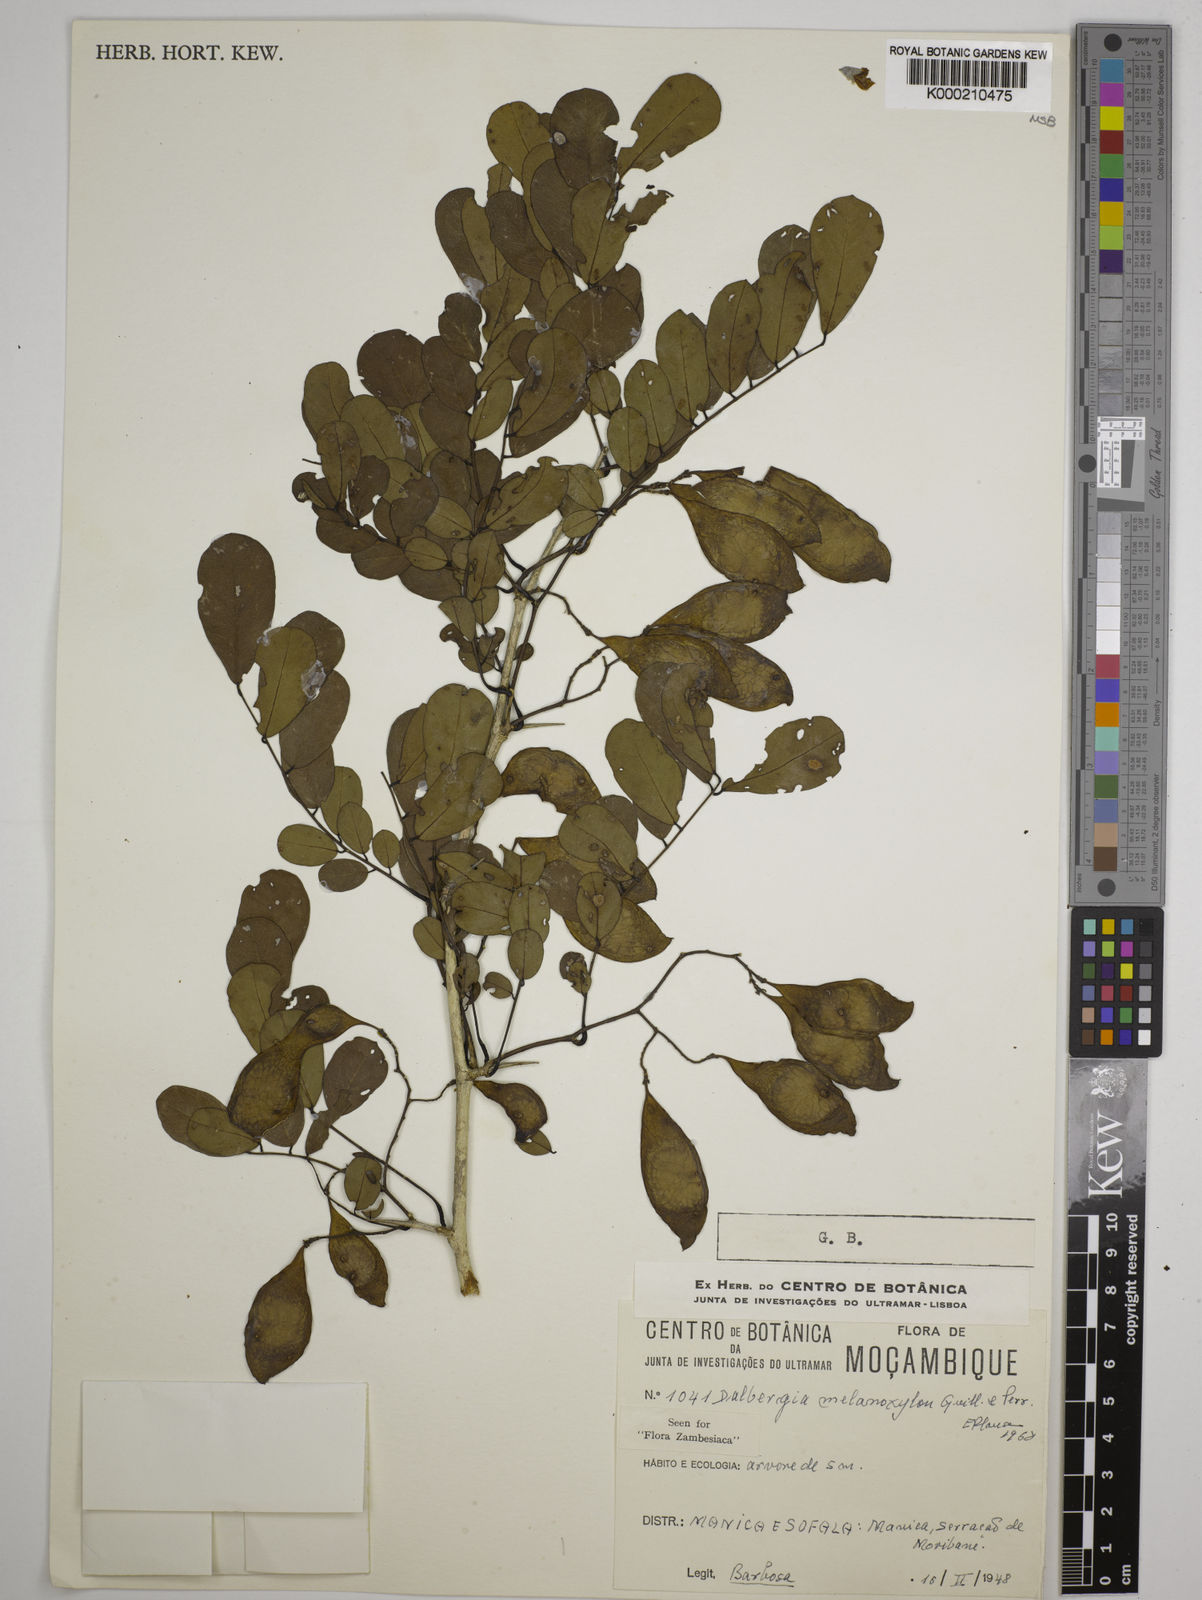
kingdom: Plantae
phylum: Tracheophyta
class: Magnoliopsida
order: Fabales
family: Fabaceae
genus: Dalbergia
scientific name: Dalbergia melanoxylon
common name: African blackwood
